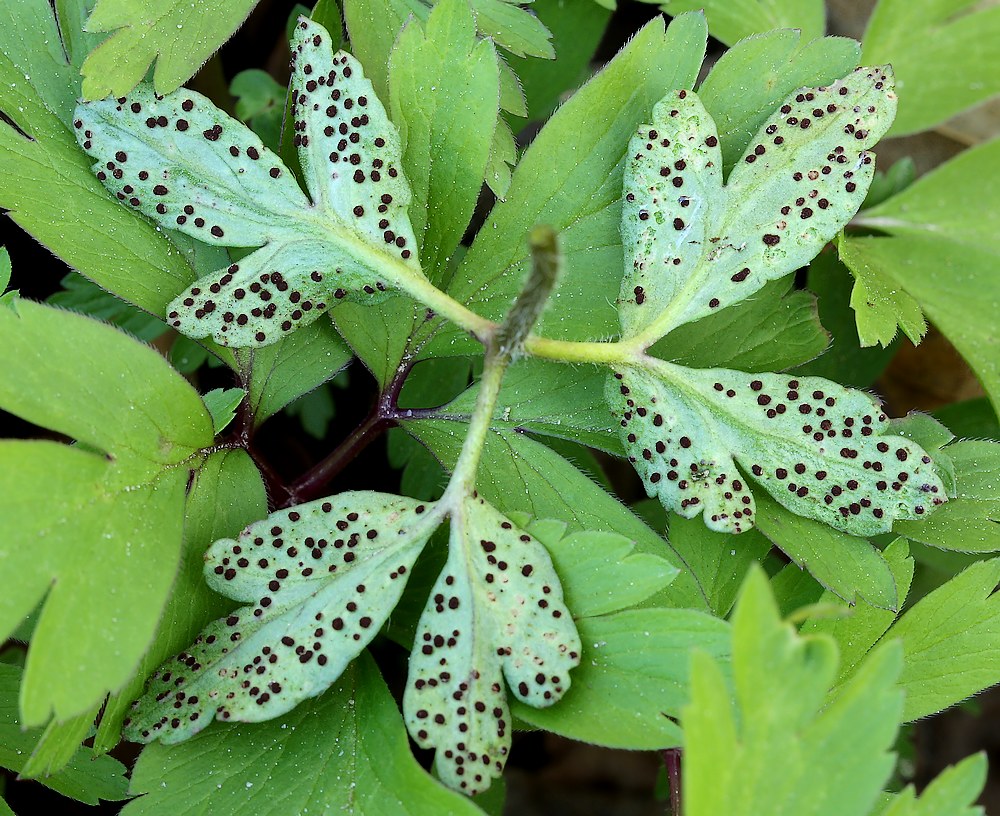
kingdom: Fungi
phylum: Basidiomycota
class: Pucciniomycetes
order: Pucciniales
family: Tranzscheliaceae
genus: Tranzschelia
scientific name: Tranzschelia anemones
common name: anemone-knæksporerust
